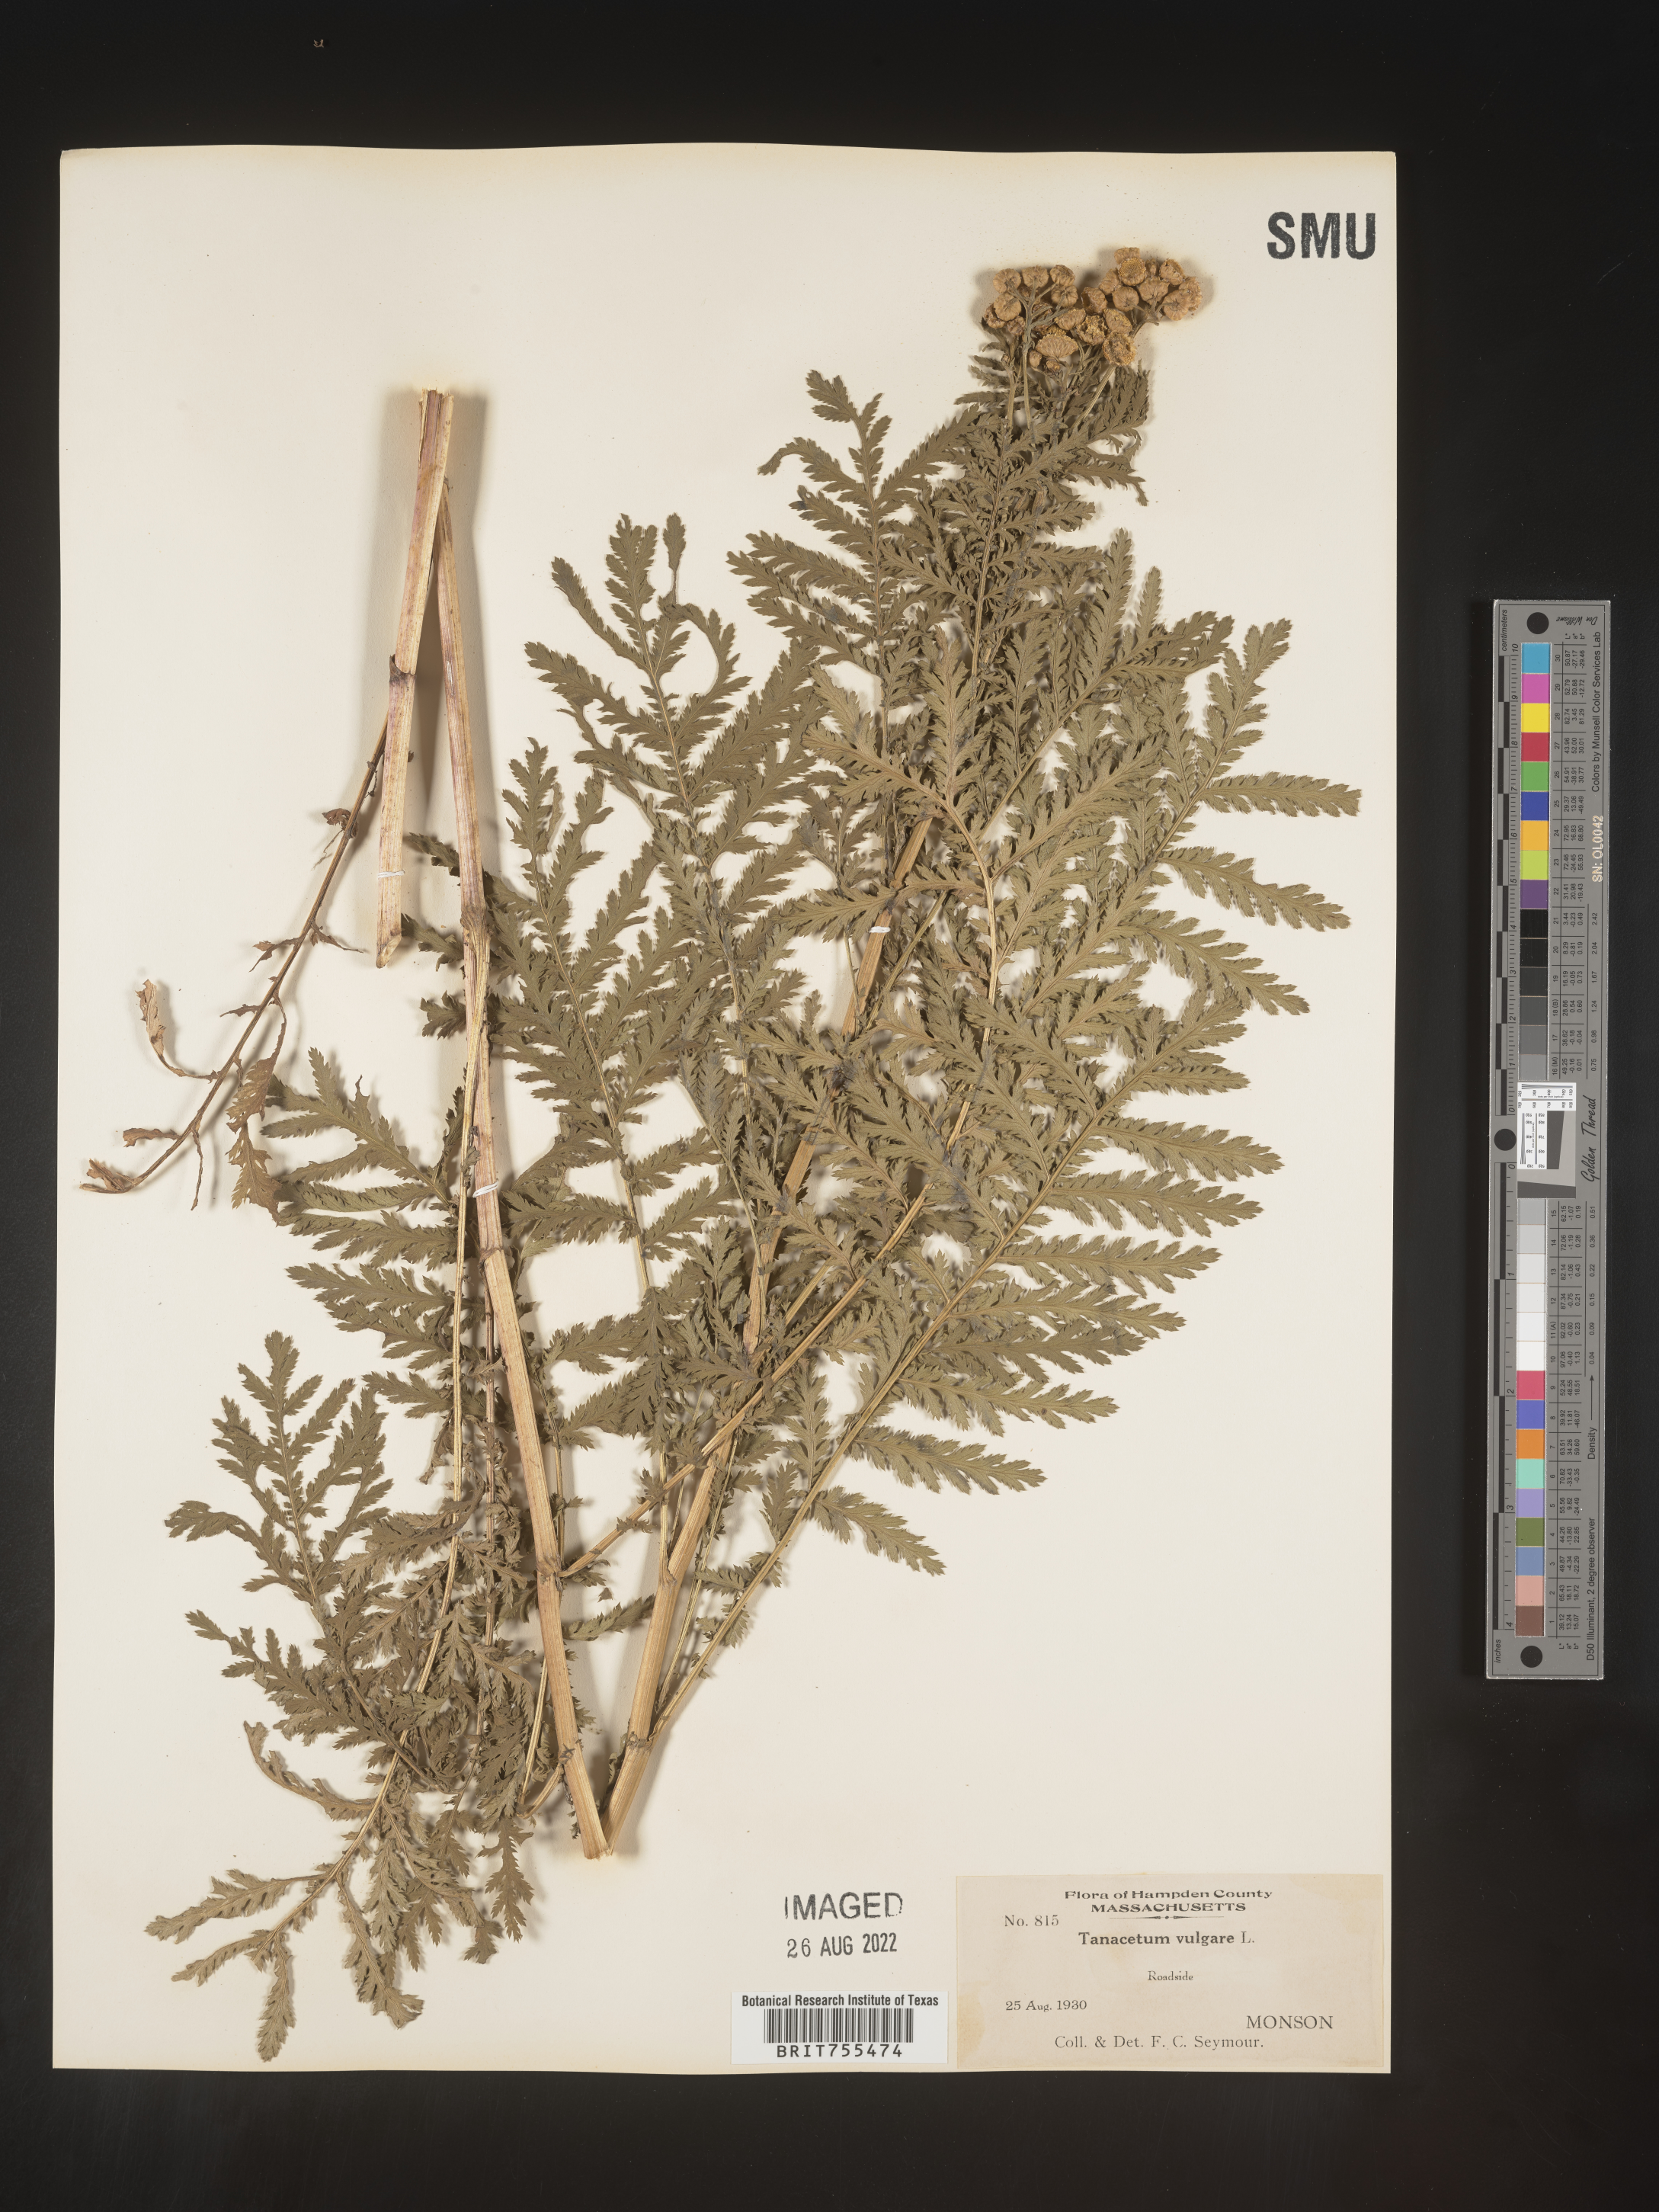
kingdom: Plantae
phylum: Tracheophyta
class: Magnoliopsida
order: Asterales
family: Asteraceae
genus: Tanacetum
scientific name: Tanacetum vulgare
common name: Common tansy
